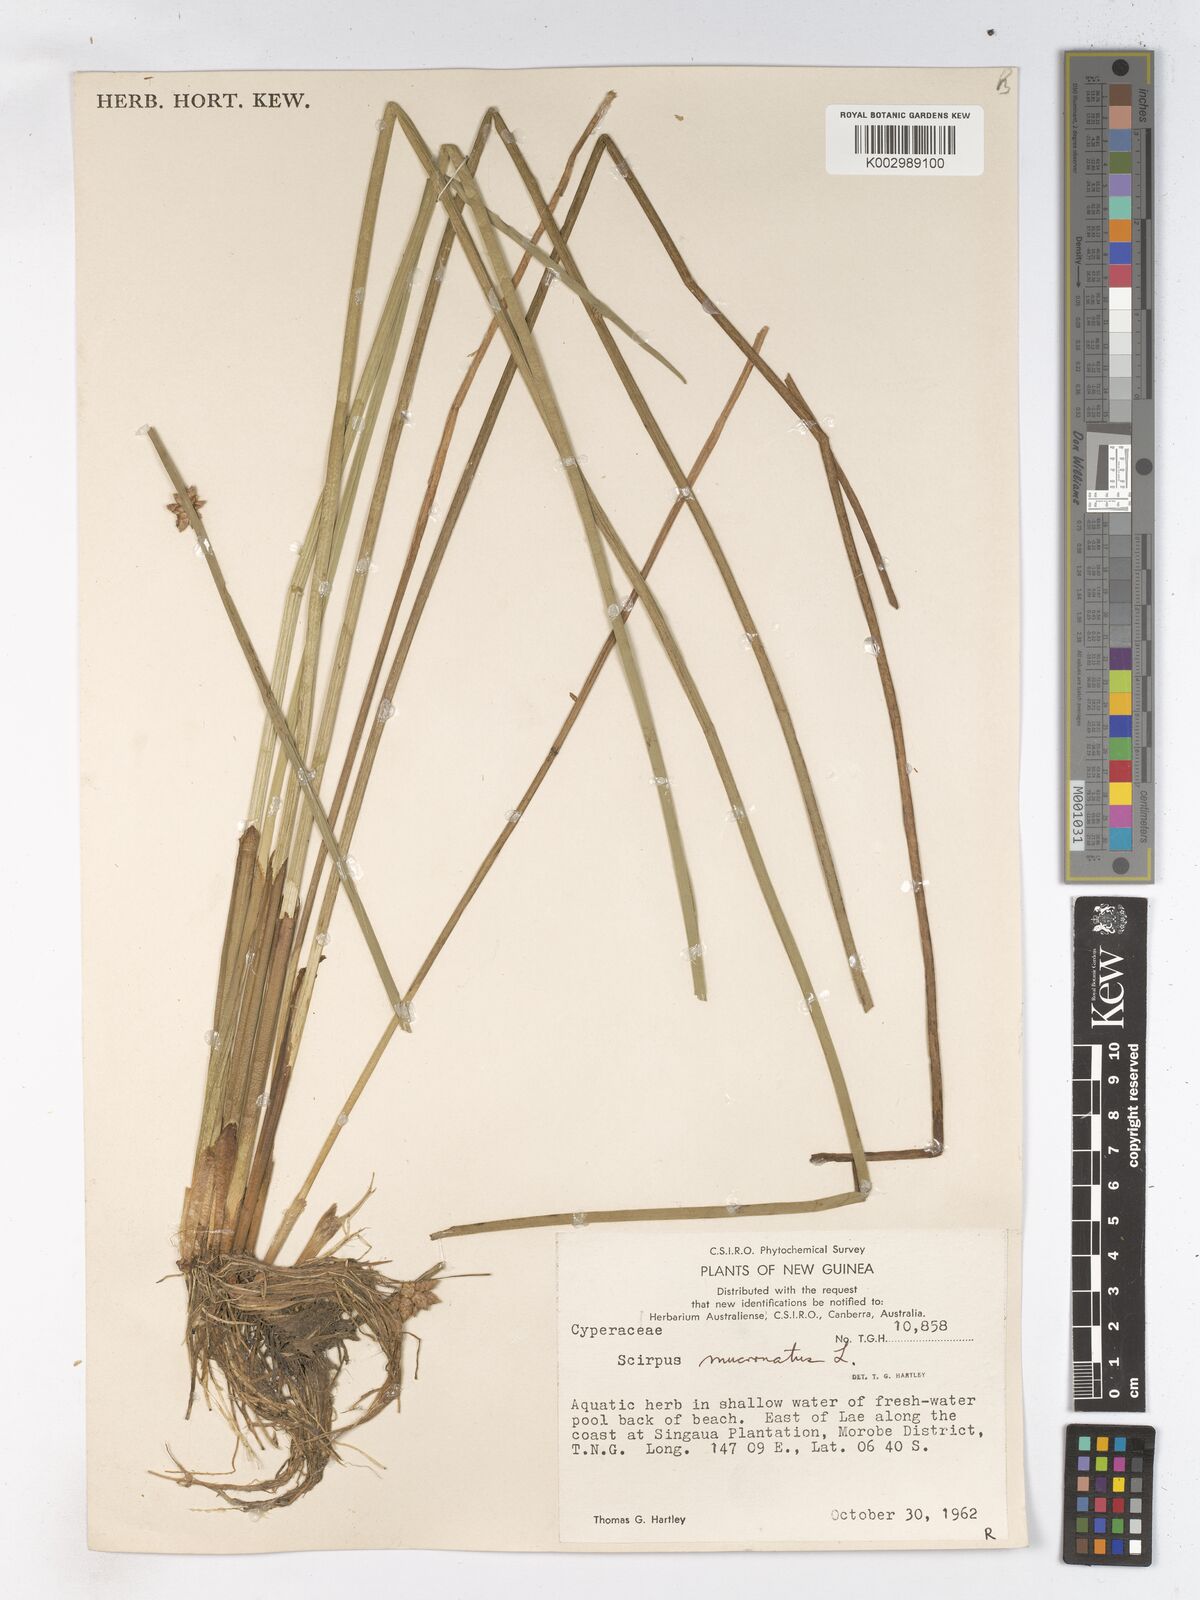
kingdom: Plantae
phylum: Tracheophyta
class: Liliopsida
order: Poales
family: Cyperaceae
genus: Schoenoplectiella
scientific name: Schoenoplectiella mucronata
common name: Bog bulrush
